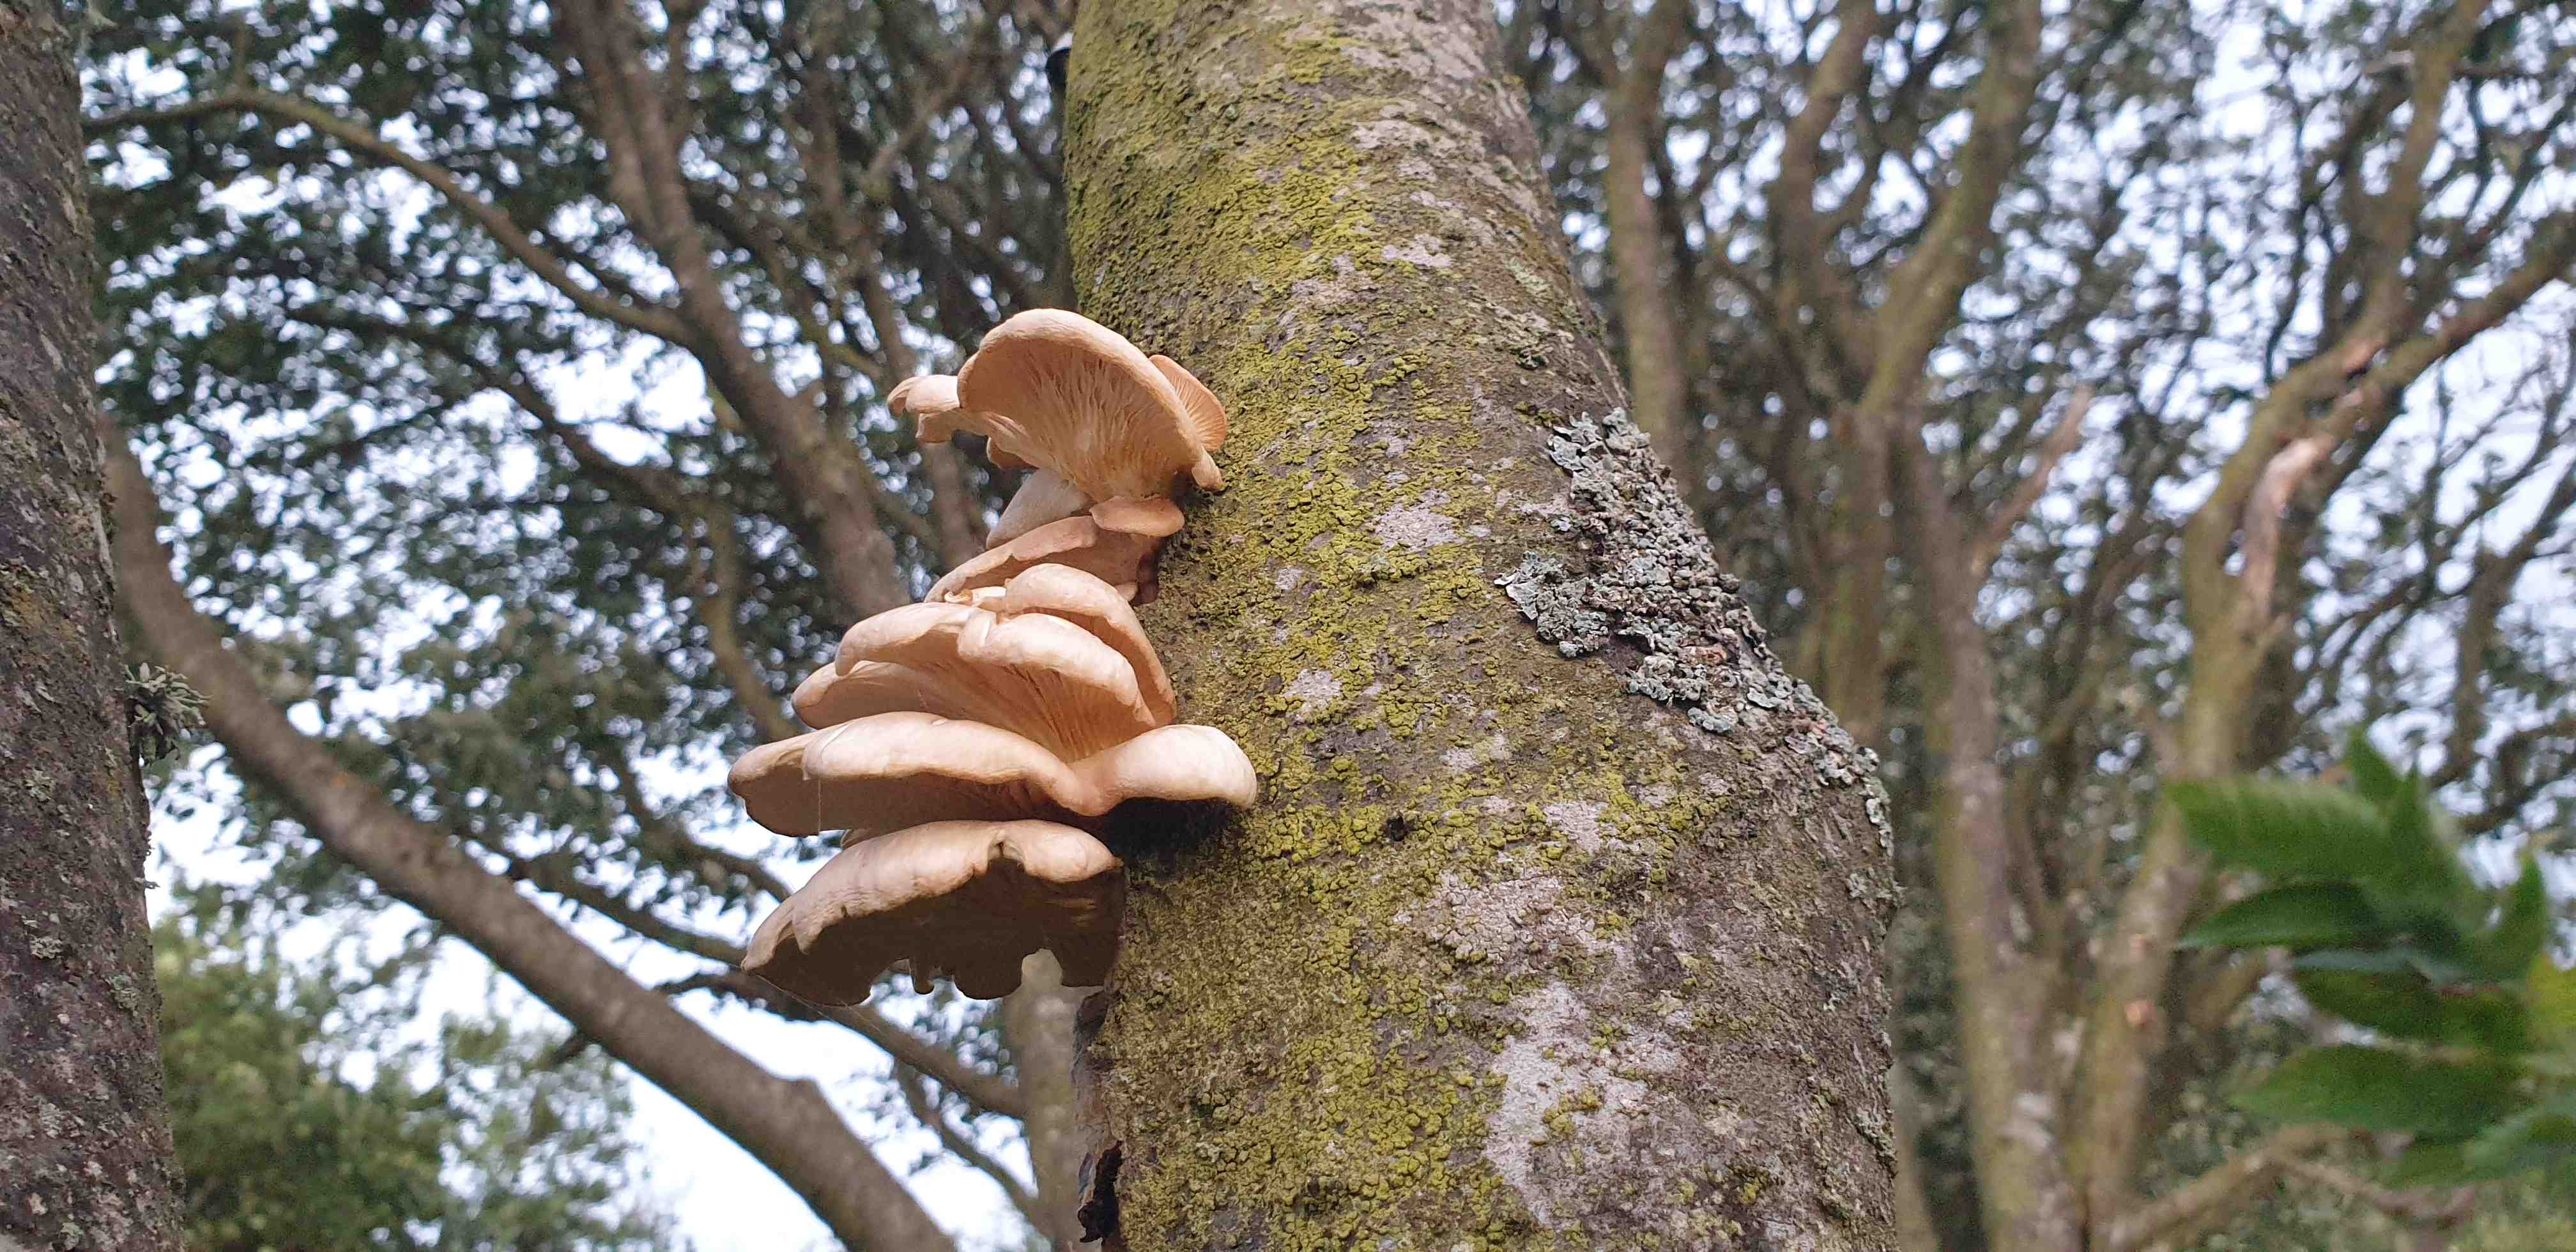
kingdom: Fungi
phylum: Basidiomycota
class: Agaricomycetes
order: Agaricales
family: Pleurotaceae
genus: Pleurotus
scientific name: Pleurotus pulmonarius
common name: sommer-østershat
